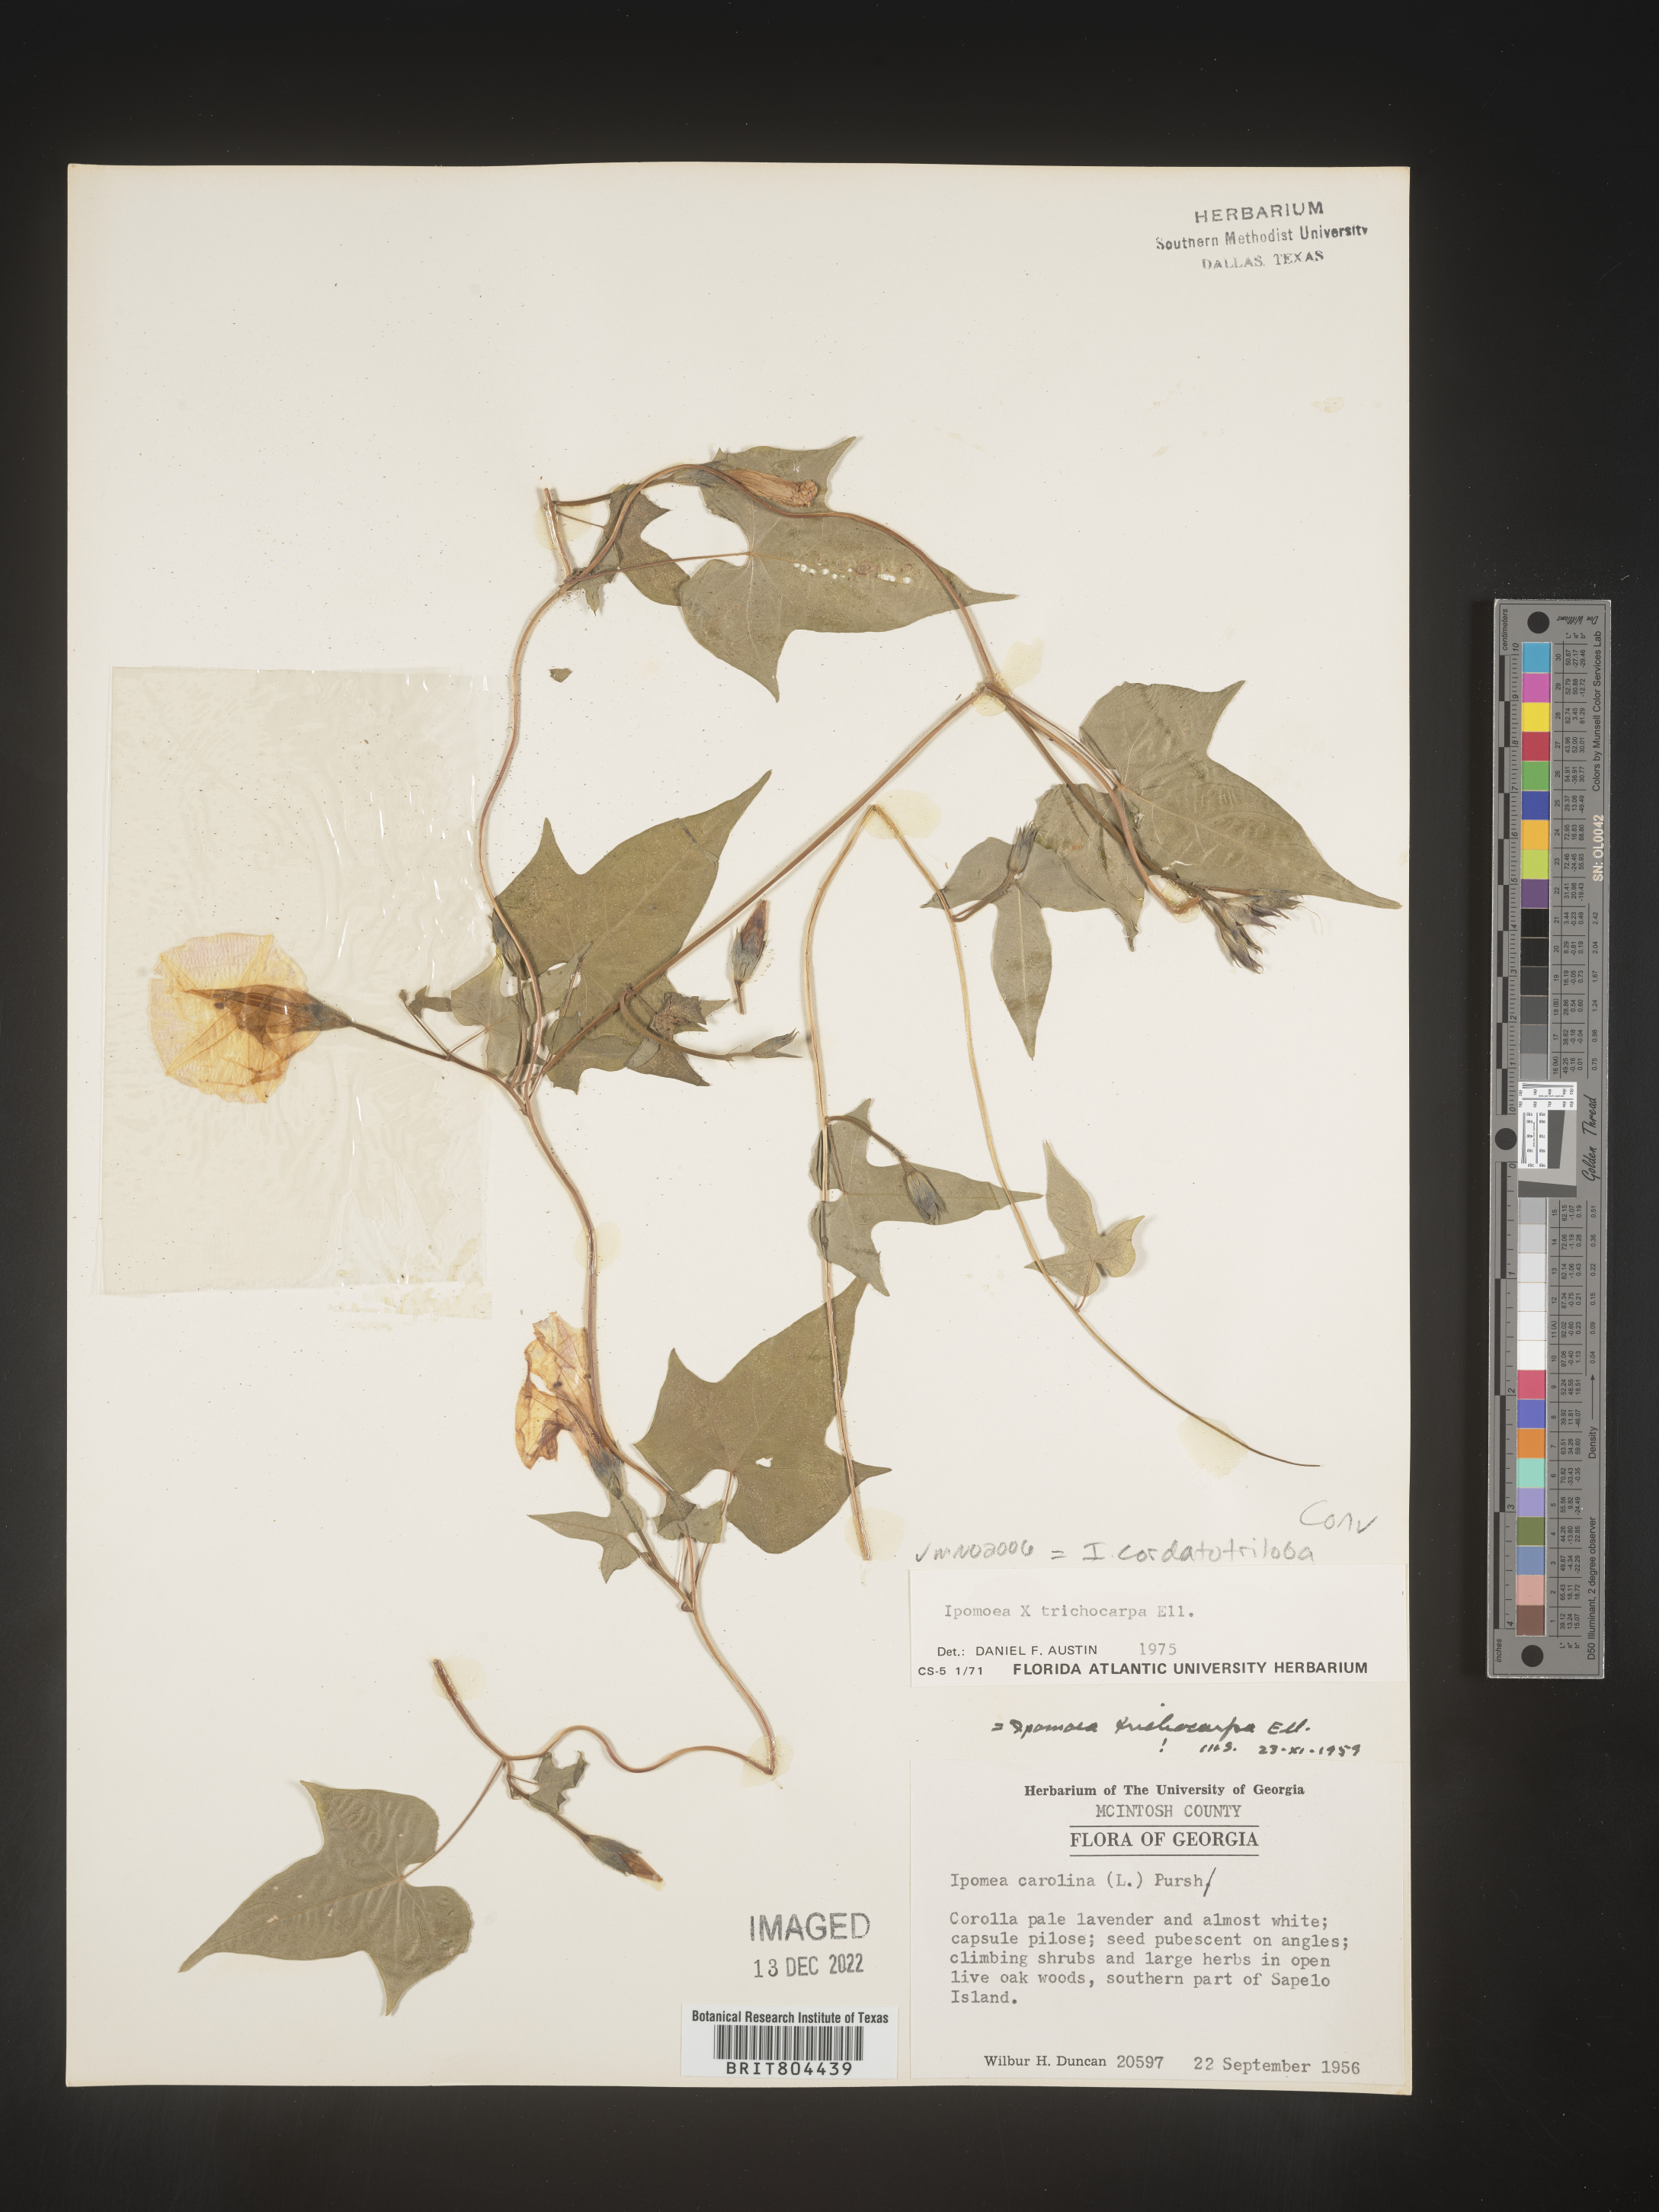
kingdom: Plantae
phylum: Tracheophyta
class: Magnoliopsida
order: Solanales
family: Convolvulaceae
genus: Ipomoea
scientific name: Ipomoea cordatotriloba
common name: Cotton morning glory
